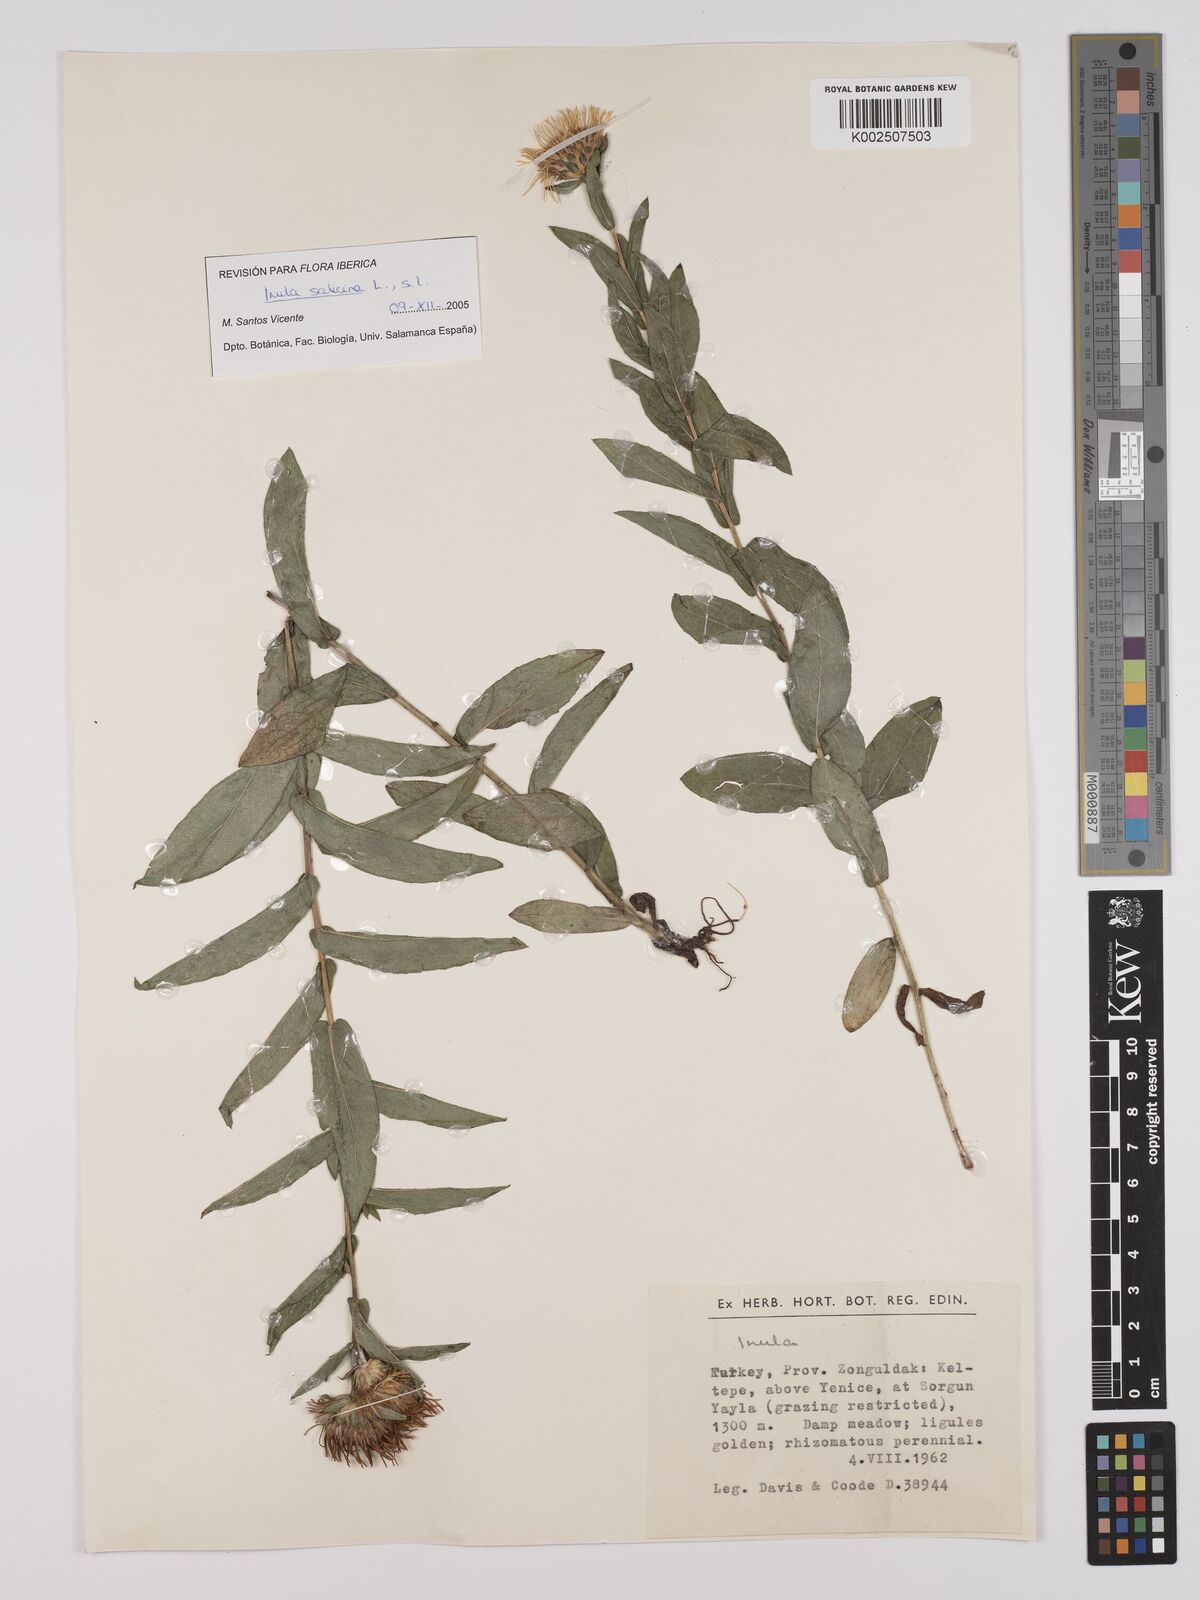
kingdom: Plantae
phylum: Tracheophyta
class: Magnoliopsida
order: Asterales
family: Asteraceae
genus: Pentanema
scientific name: Pentanema salicinum
